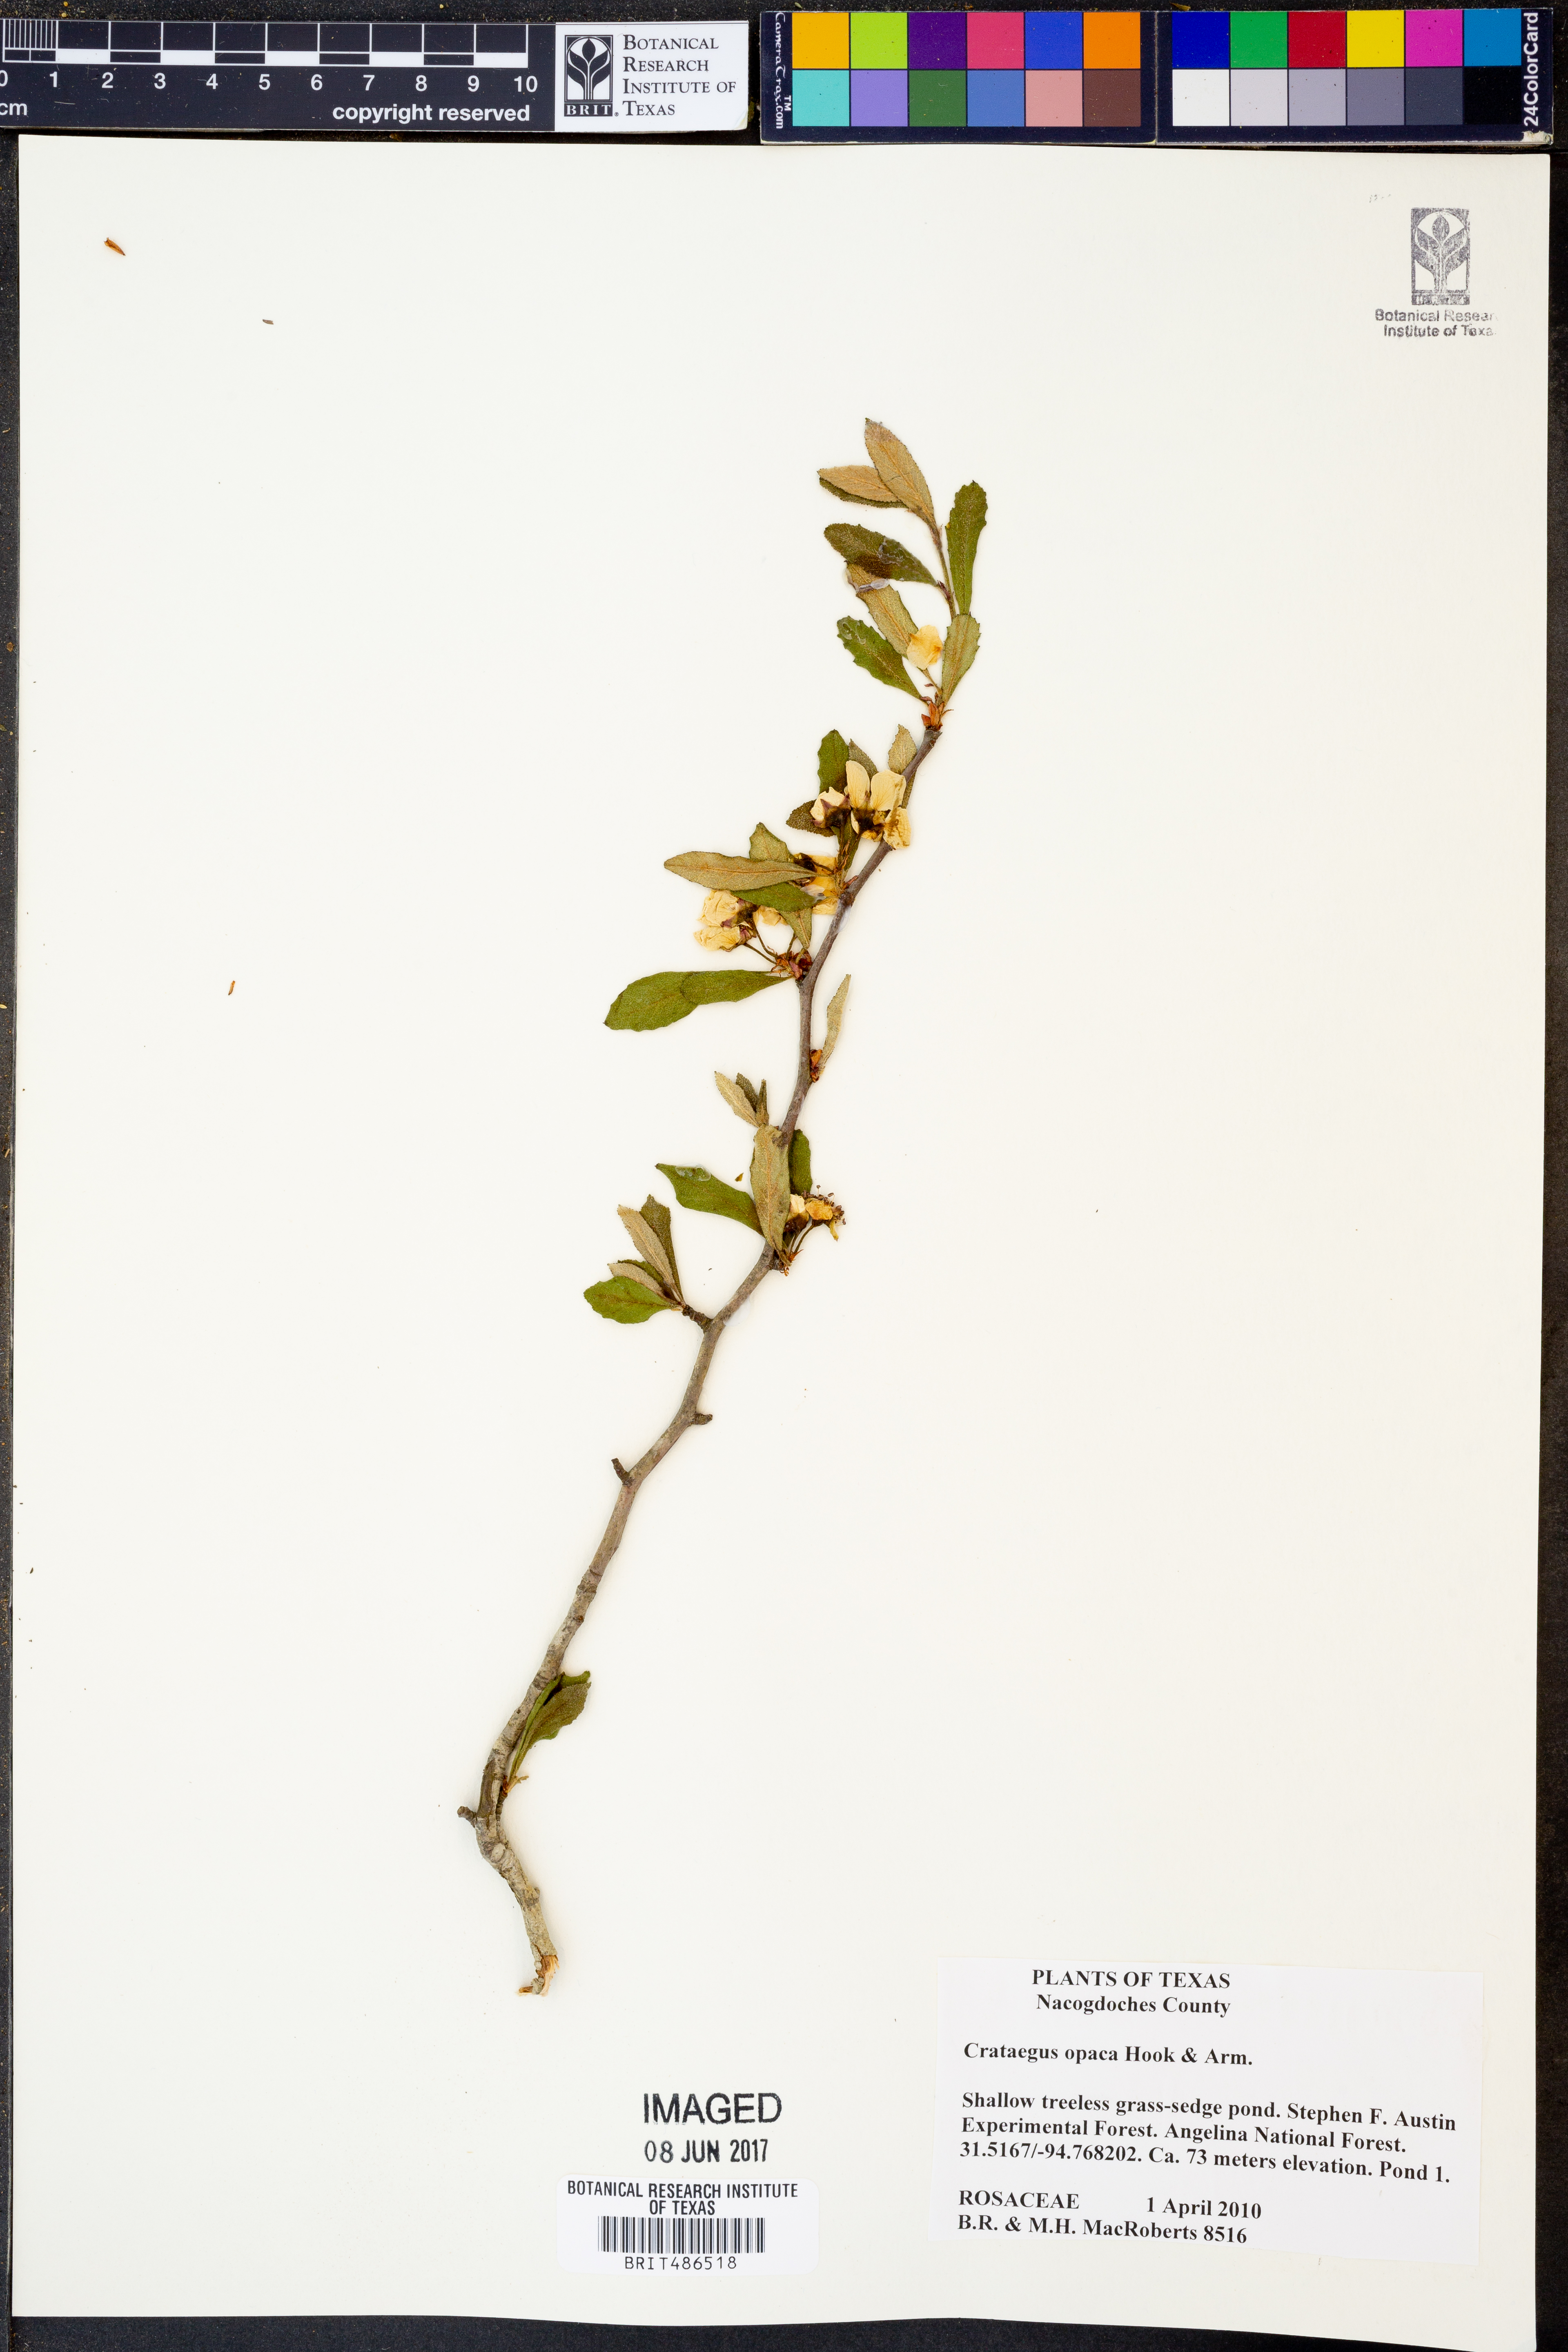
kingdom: Plantae
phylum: Tracheophyta
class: Magnoliopsida
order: Rosales
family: Rosaceae
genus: Crataegus
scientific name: Crataegus opaca
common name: Apple haw
